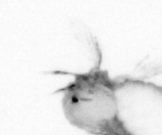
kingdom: Animalia
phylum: Annelida
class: Polychaeta
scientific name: Polychaeta
